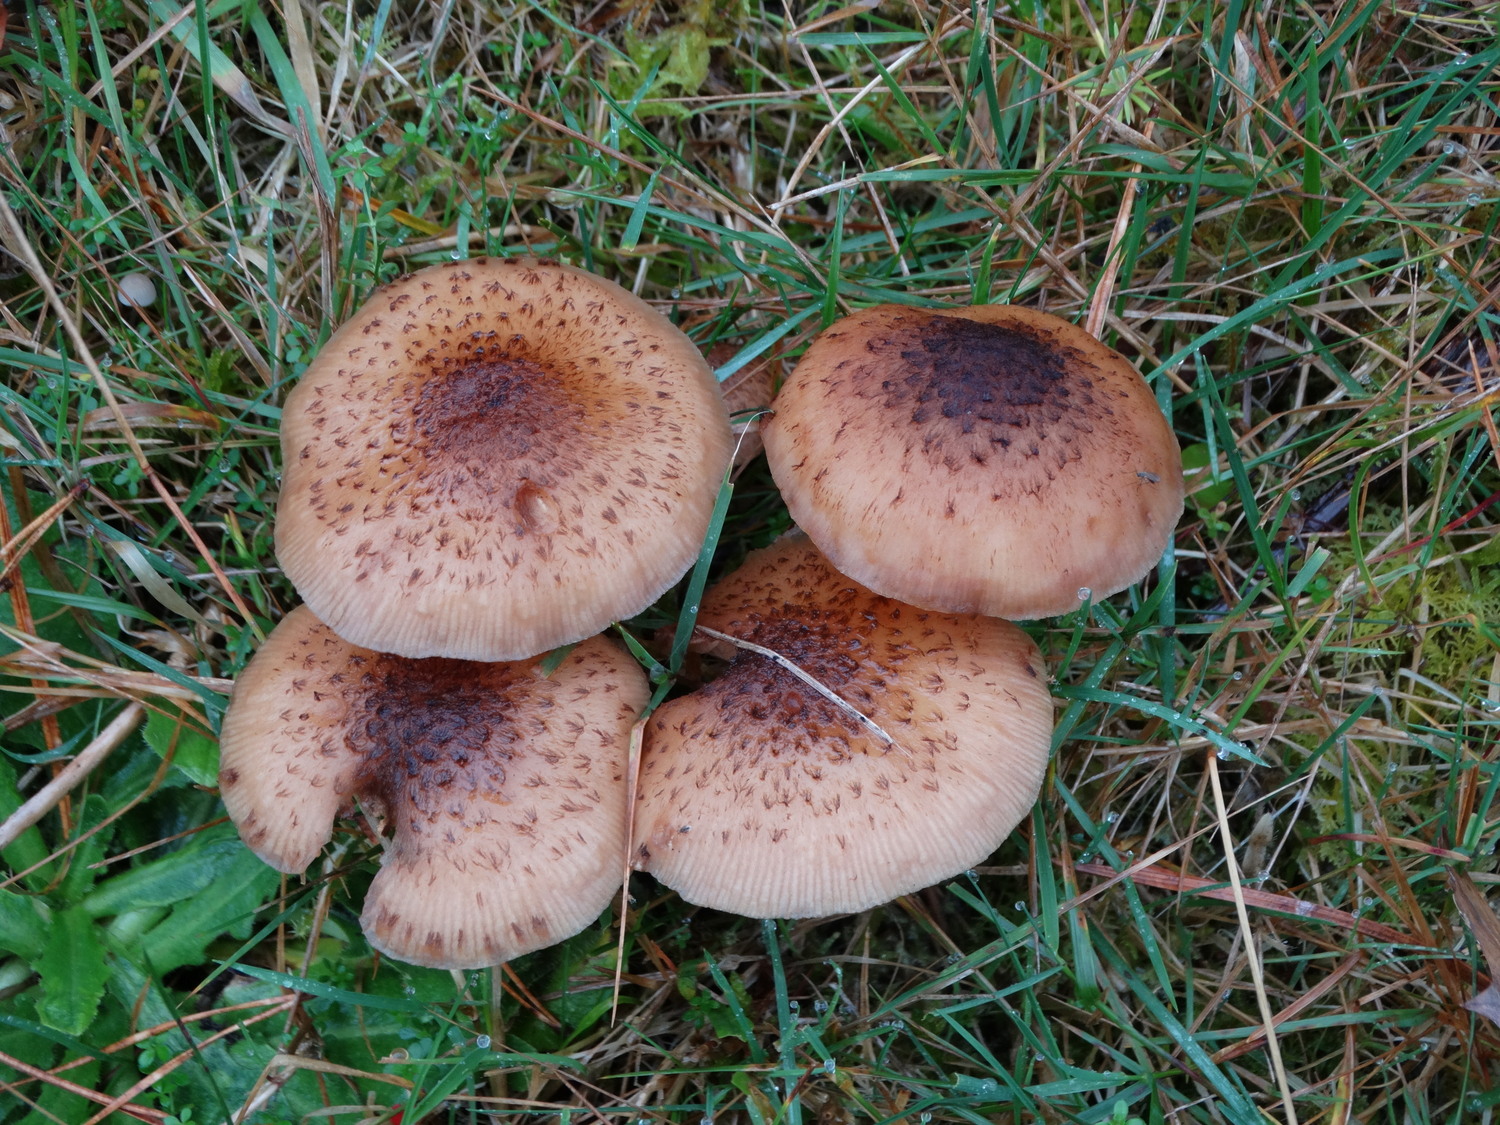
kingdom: Fungi
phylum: Basidiomycota
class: Agaricomycetes
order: Agaricales
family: Physalacriaceae
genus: Armillaria
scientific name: Armillaria ostoyae
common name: mørk honningsvamp
